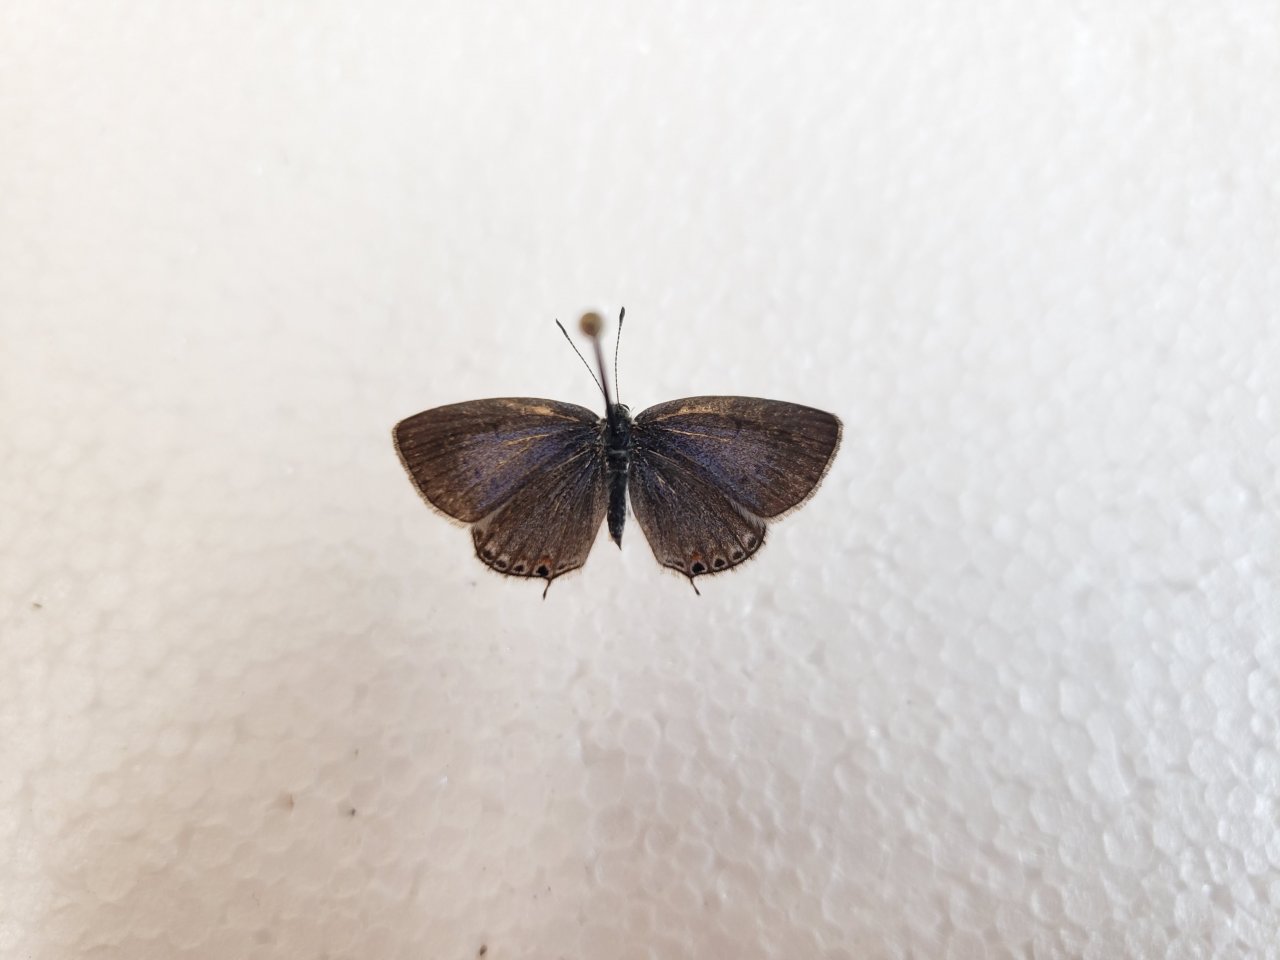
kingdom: Animalia
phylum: Arthropoda
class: Insecta
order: Lepidoptera
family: Lycaenidae
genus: Elkalyce
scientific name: Elkalyce amyntula
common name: Western Tailed-Blue
